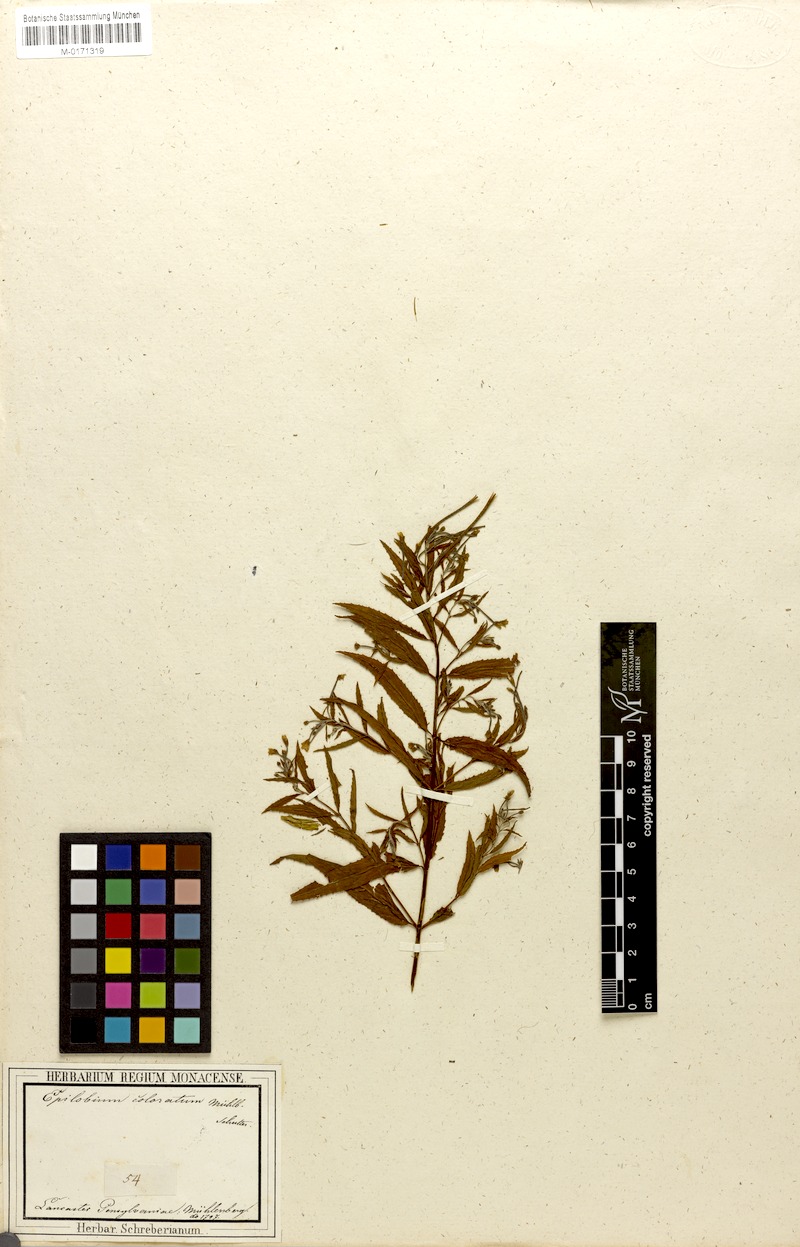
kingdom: Plantae
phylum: Tracheophyta
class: Magnoliopsida
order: Myrtales
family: Onagraceae
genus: Epilobium
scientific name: Epilobium coloratum
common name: Bronze willowherb
